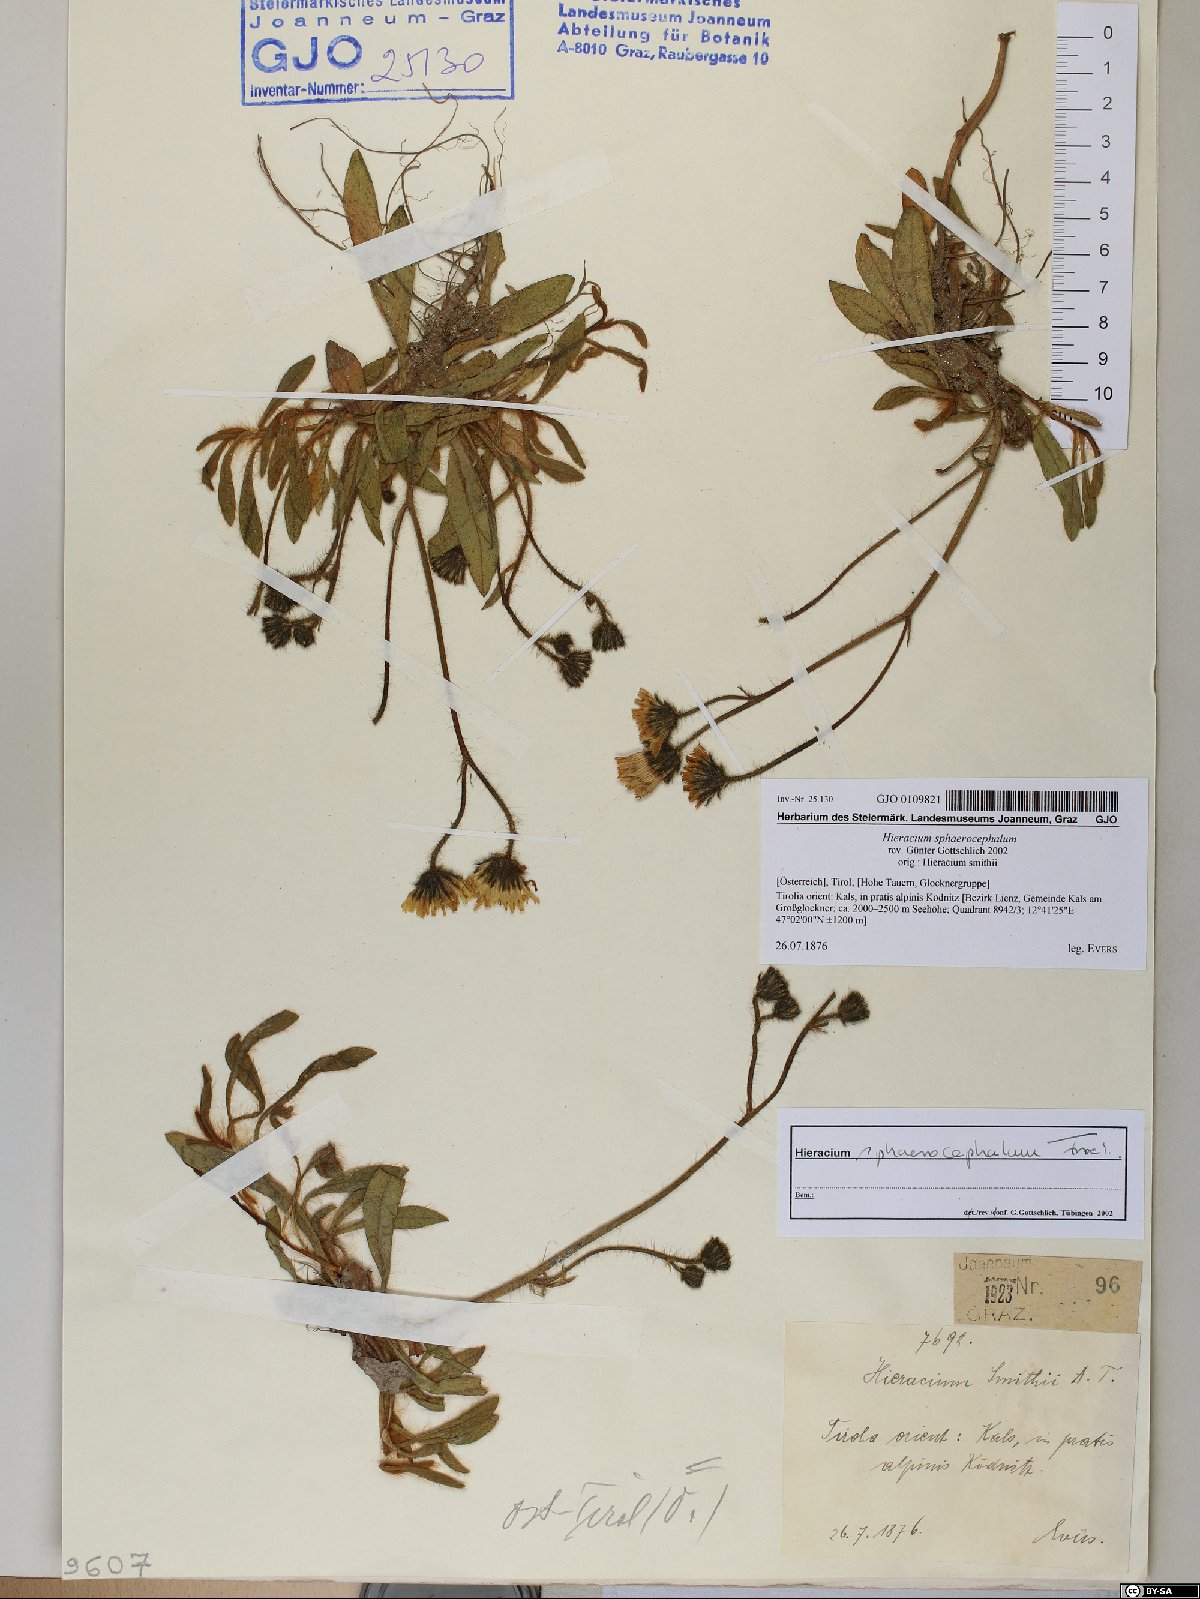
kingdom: Plantae
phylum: Tracheophyta
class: Magnoliopsida
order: Asterales
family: Asteraceae
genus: Pilosella
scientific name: Pilosella sphaerocephala
